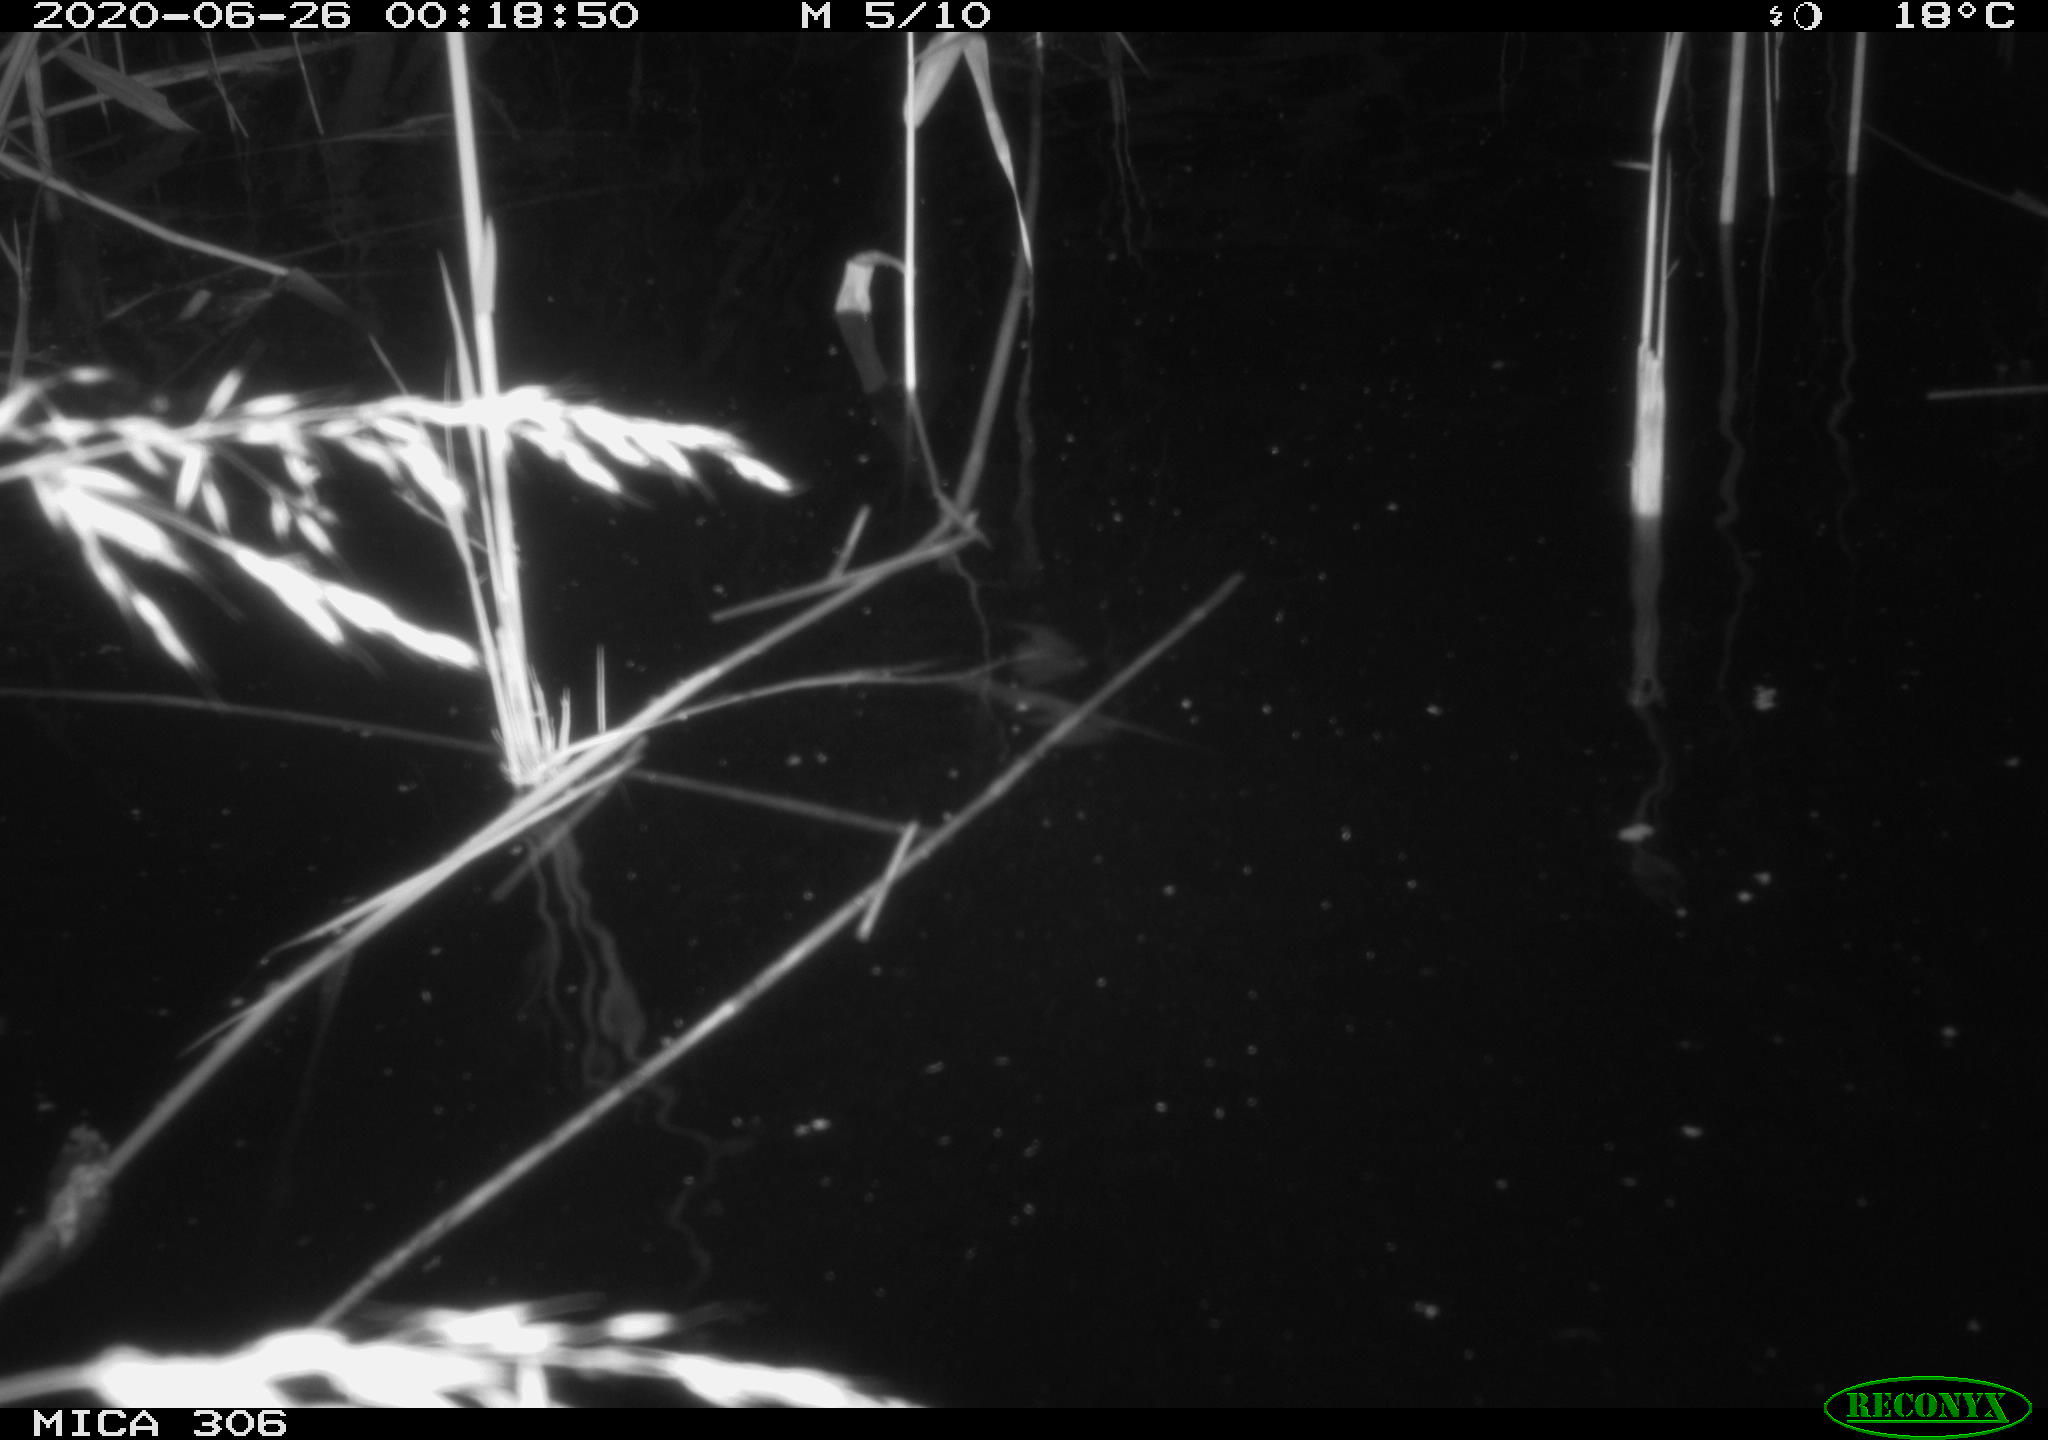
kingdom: Animalia
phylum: Chordata
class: Mammalia
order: Rodentia
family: Muridae
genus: Rattus
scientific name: Rattus norvegicus
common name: Brown rat
